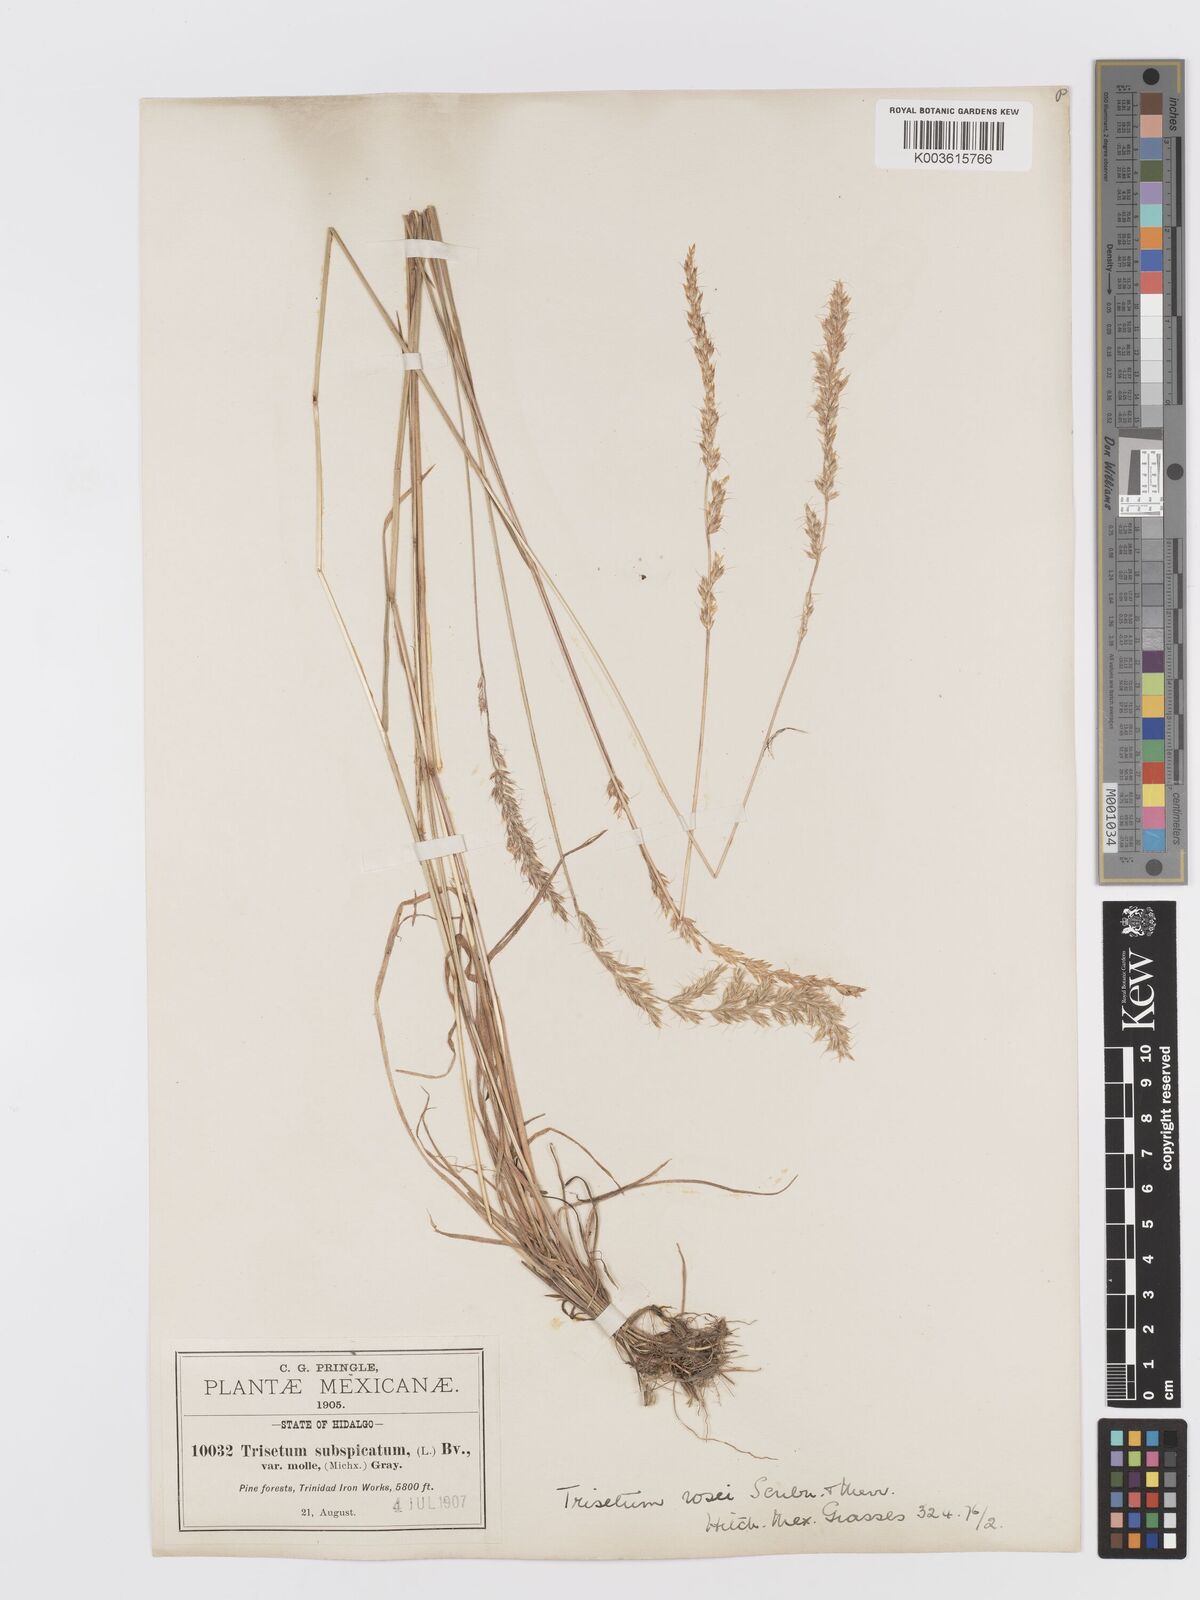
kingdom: Plantae
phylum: Tracheophyta
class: Liliopsida
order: Poales
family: Poaceae
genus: Koeleria
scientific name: Koeleria spicata
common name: Mountain trisetum
